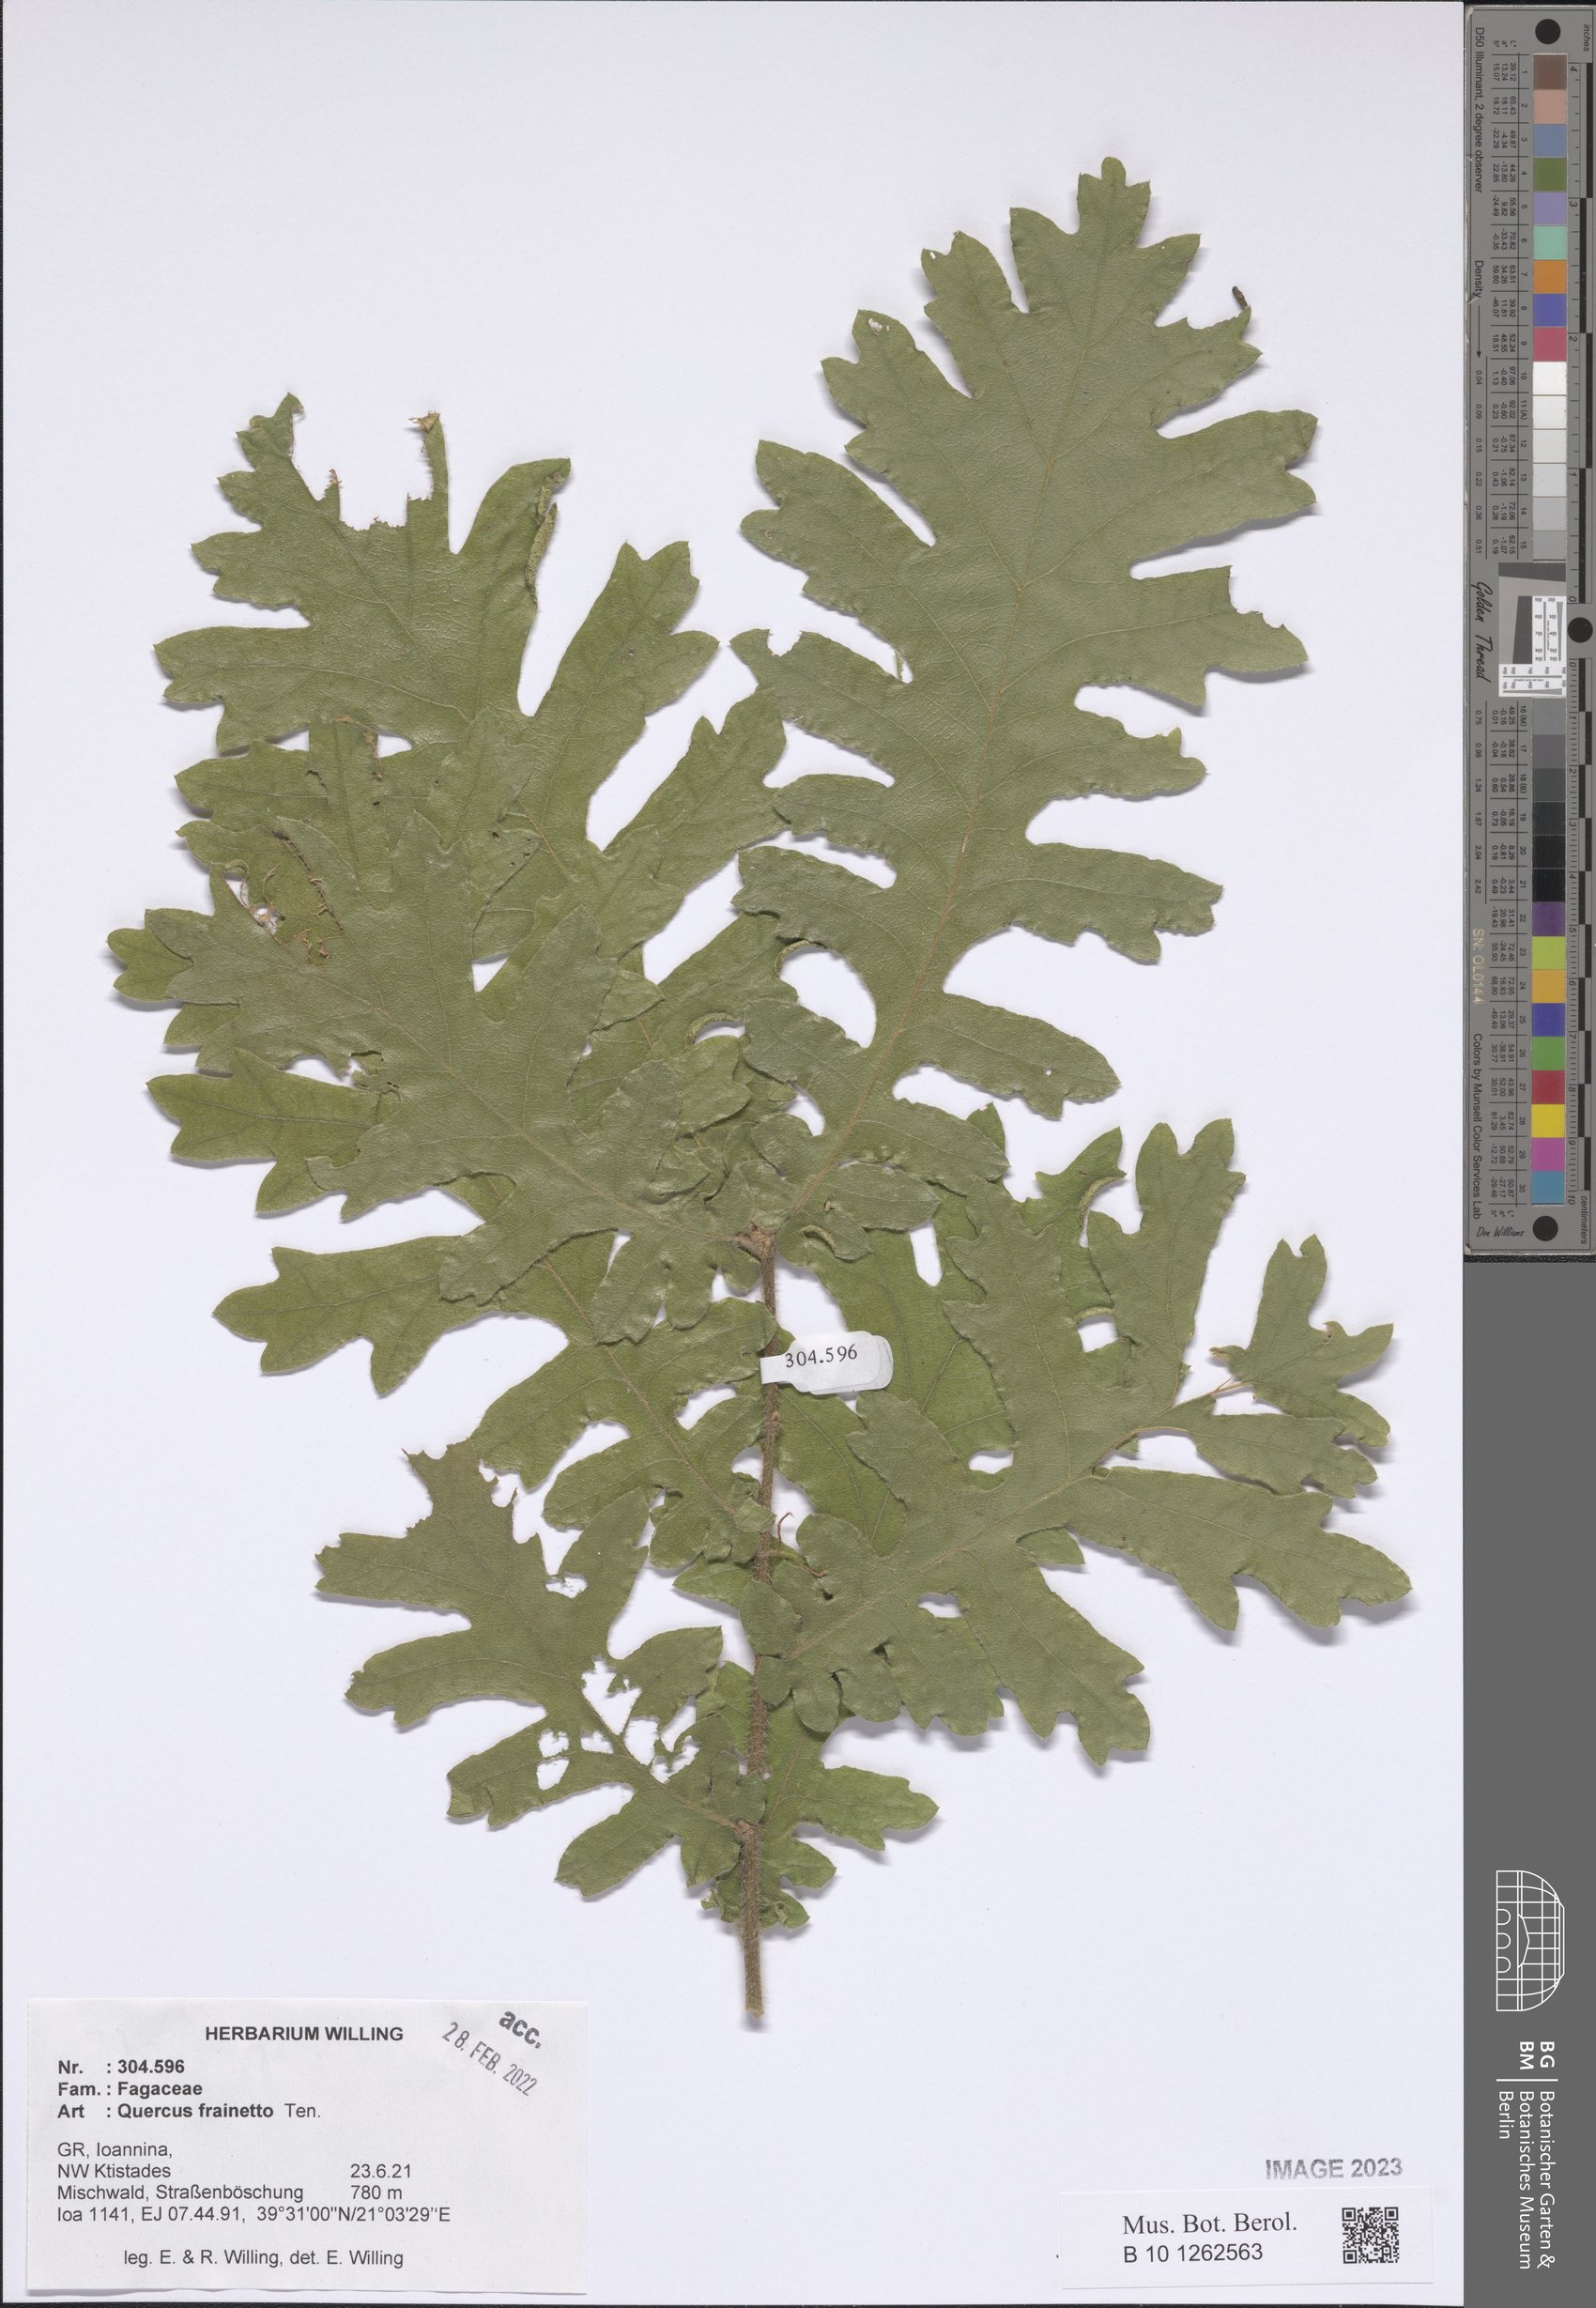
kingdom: Plantae
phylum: Tracheophyta
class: Magnoliopsida
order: Fagales
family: Fagaceae
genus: Quercus
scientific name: Quercus conferta
